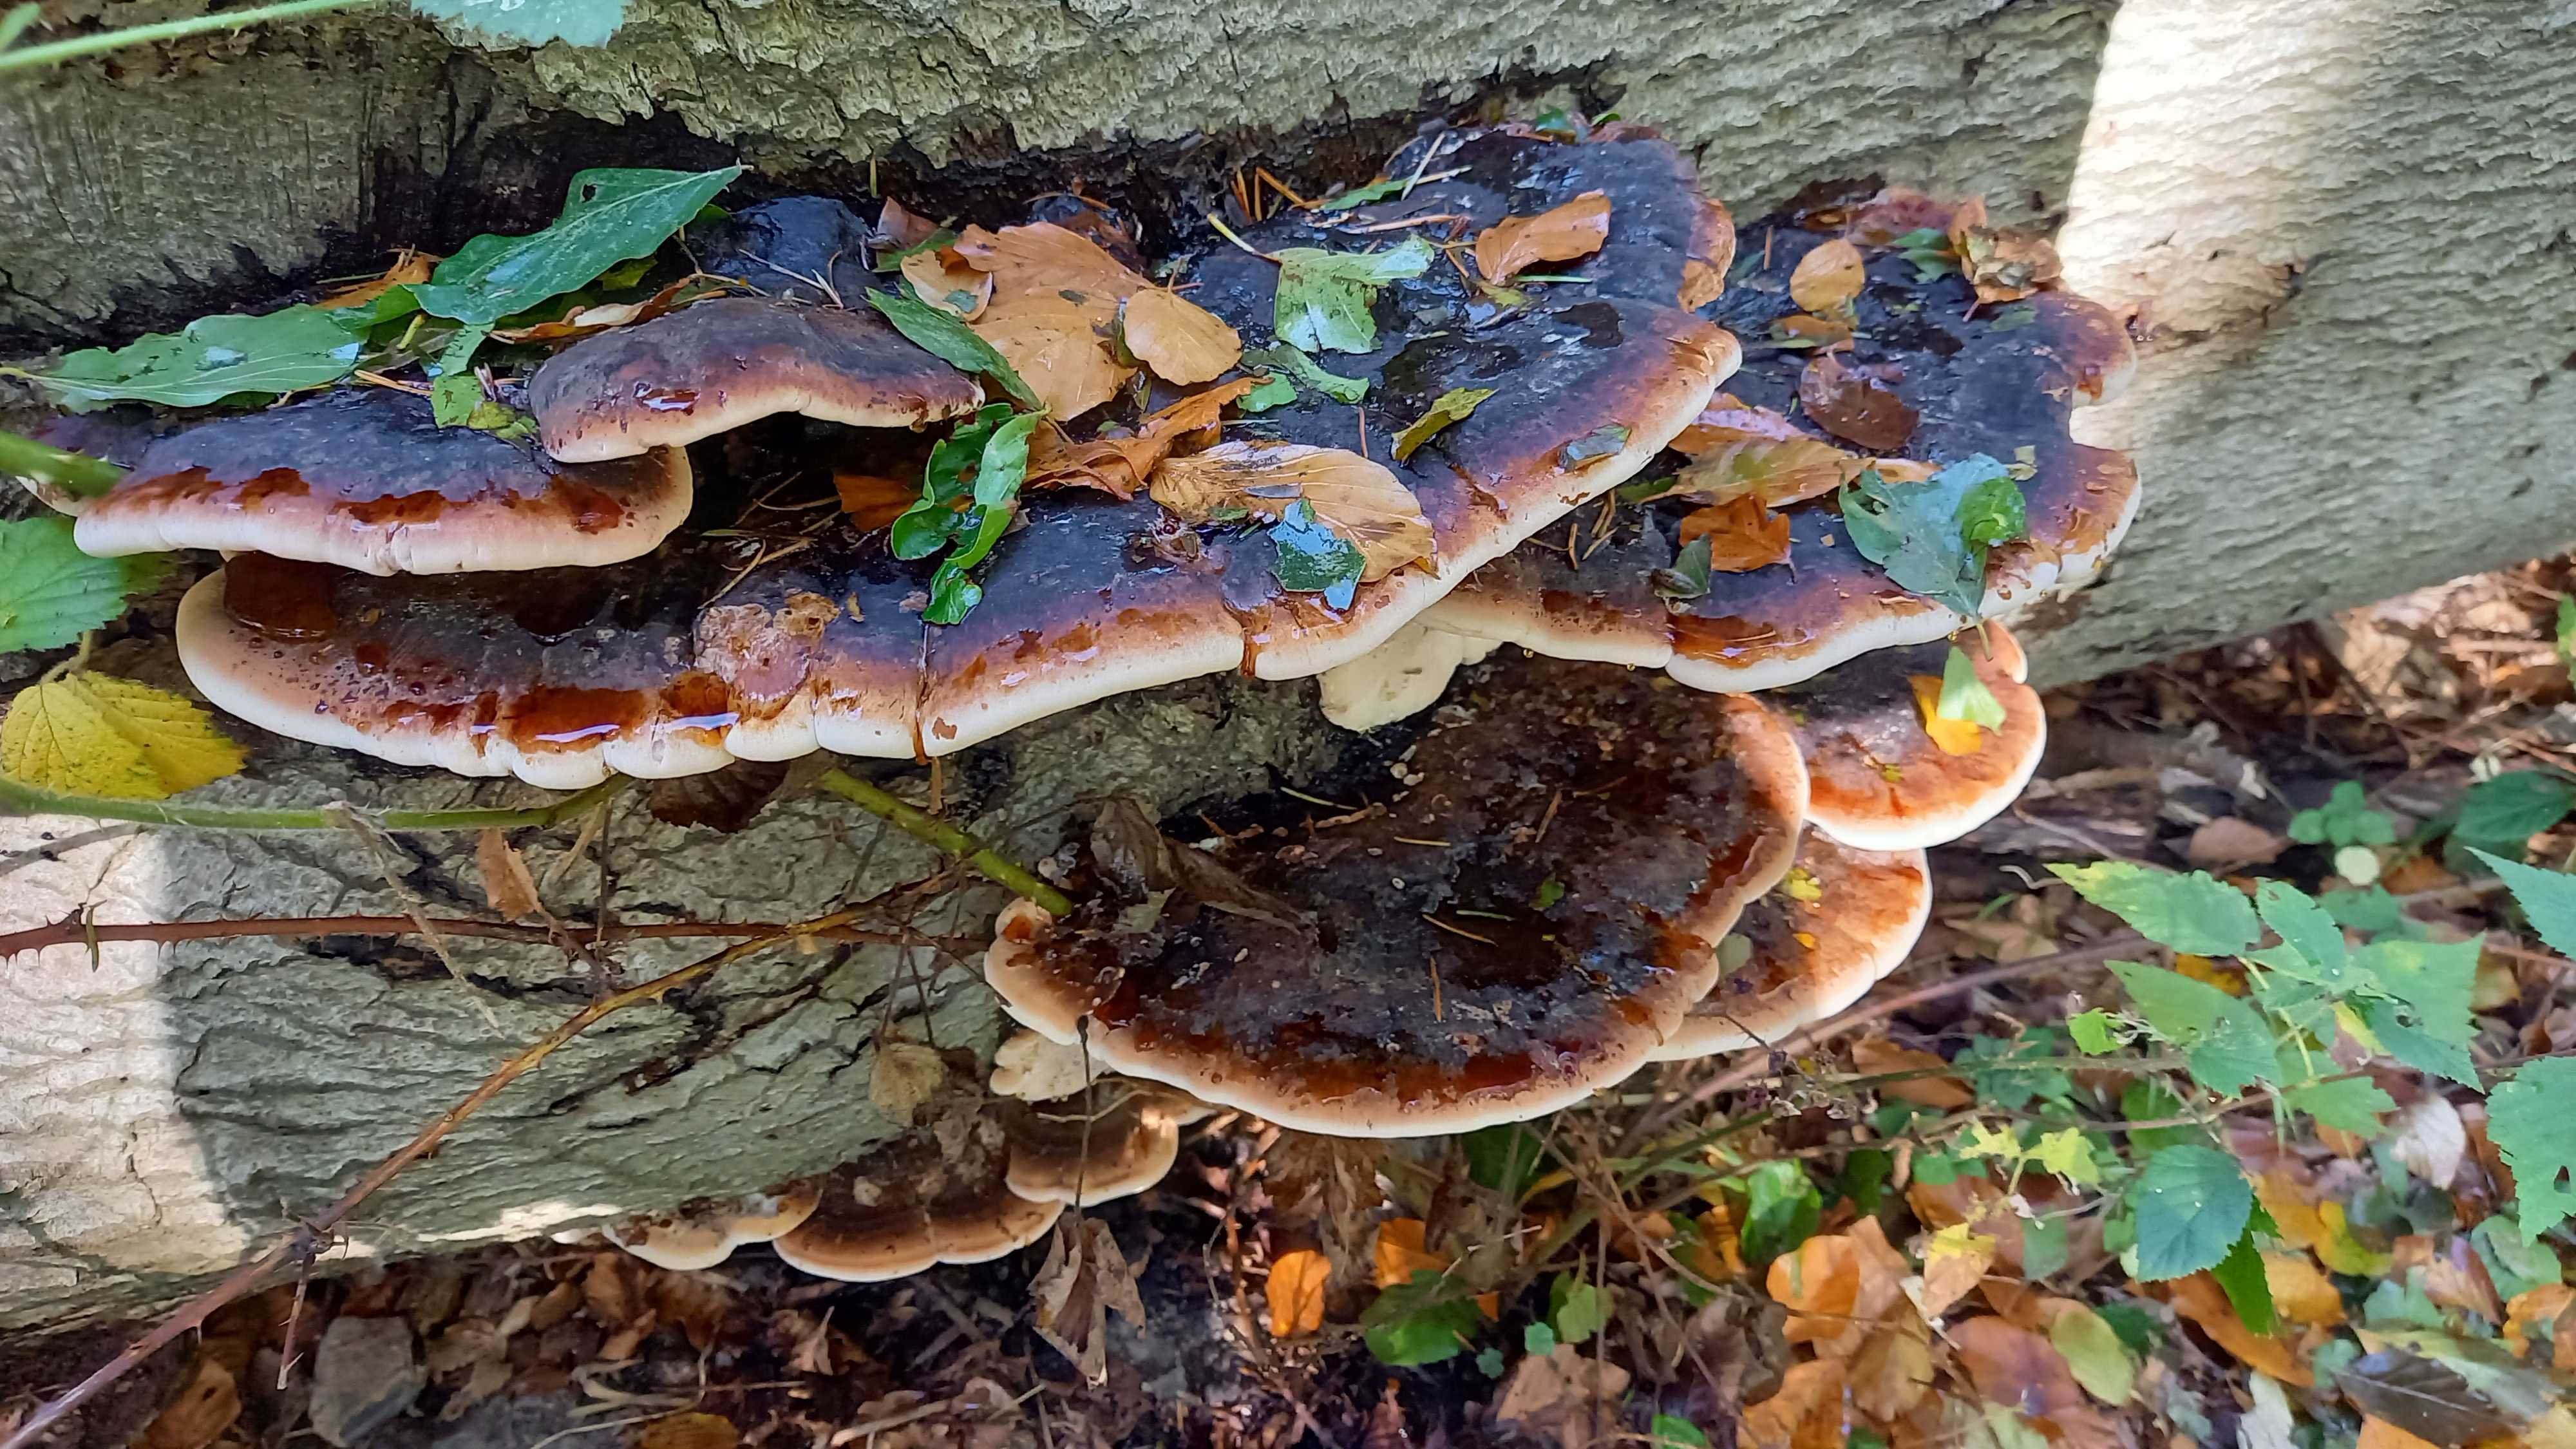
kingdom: Fungi
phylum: Basidiomycota
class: Agaricomycetes
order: Polyporales
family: Ischnodermataceae
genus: Ischnoderma
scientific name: Ischnoderma resinosum
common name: løv-tjæreporesvamp
